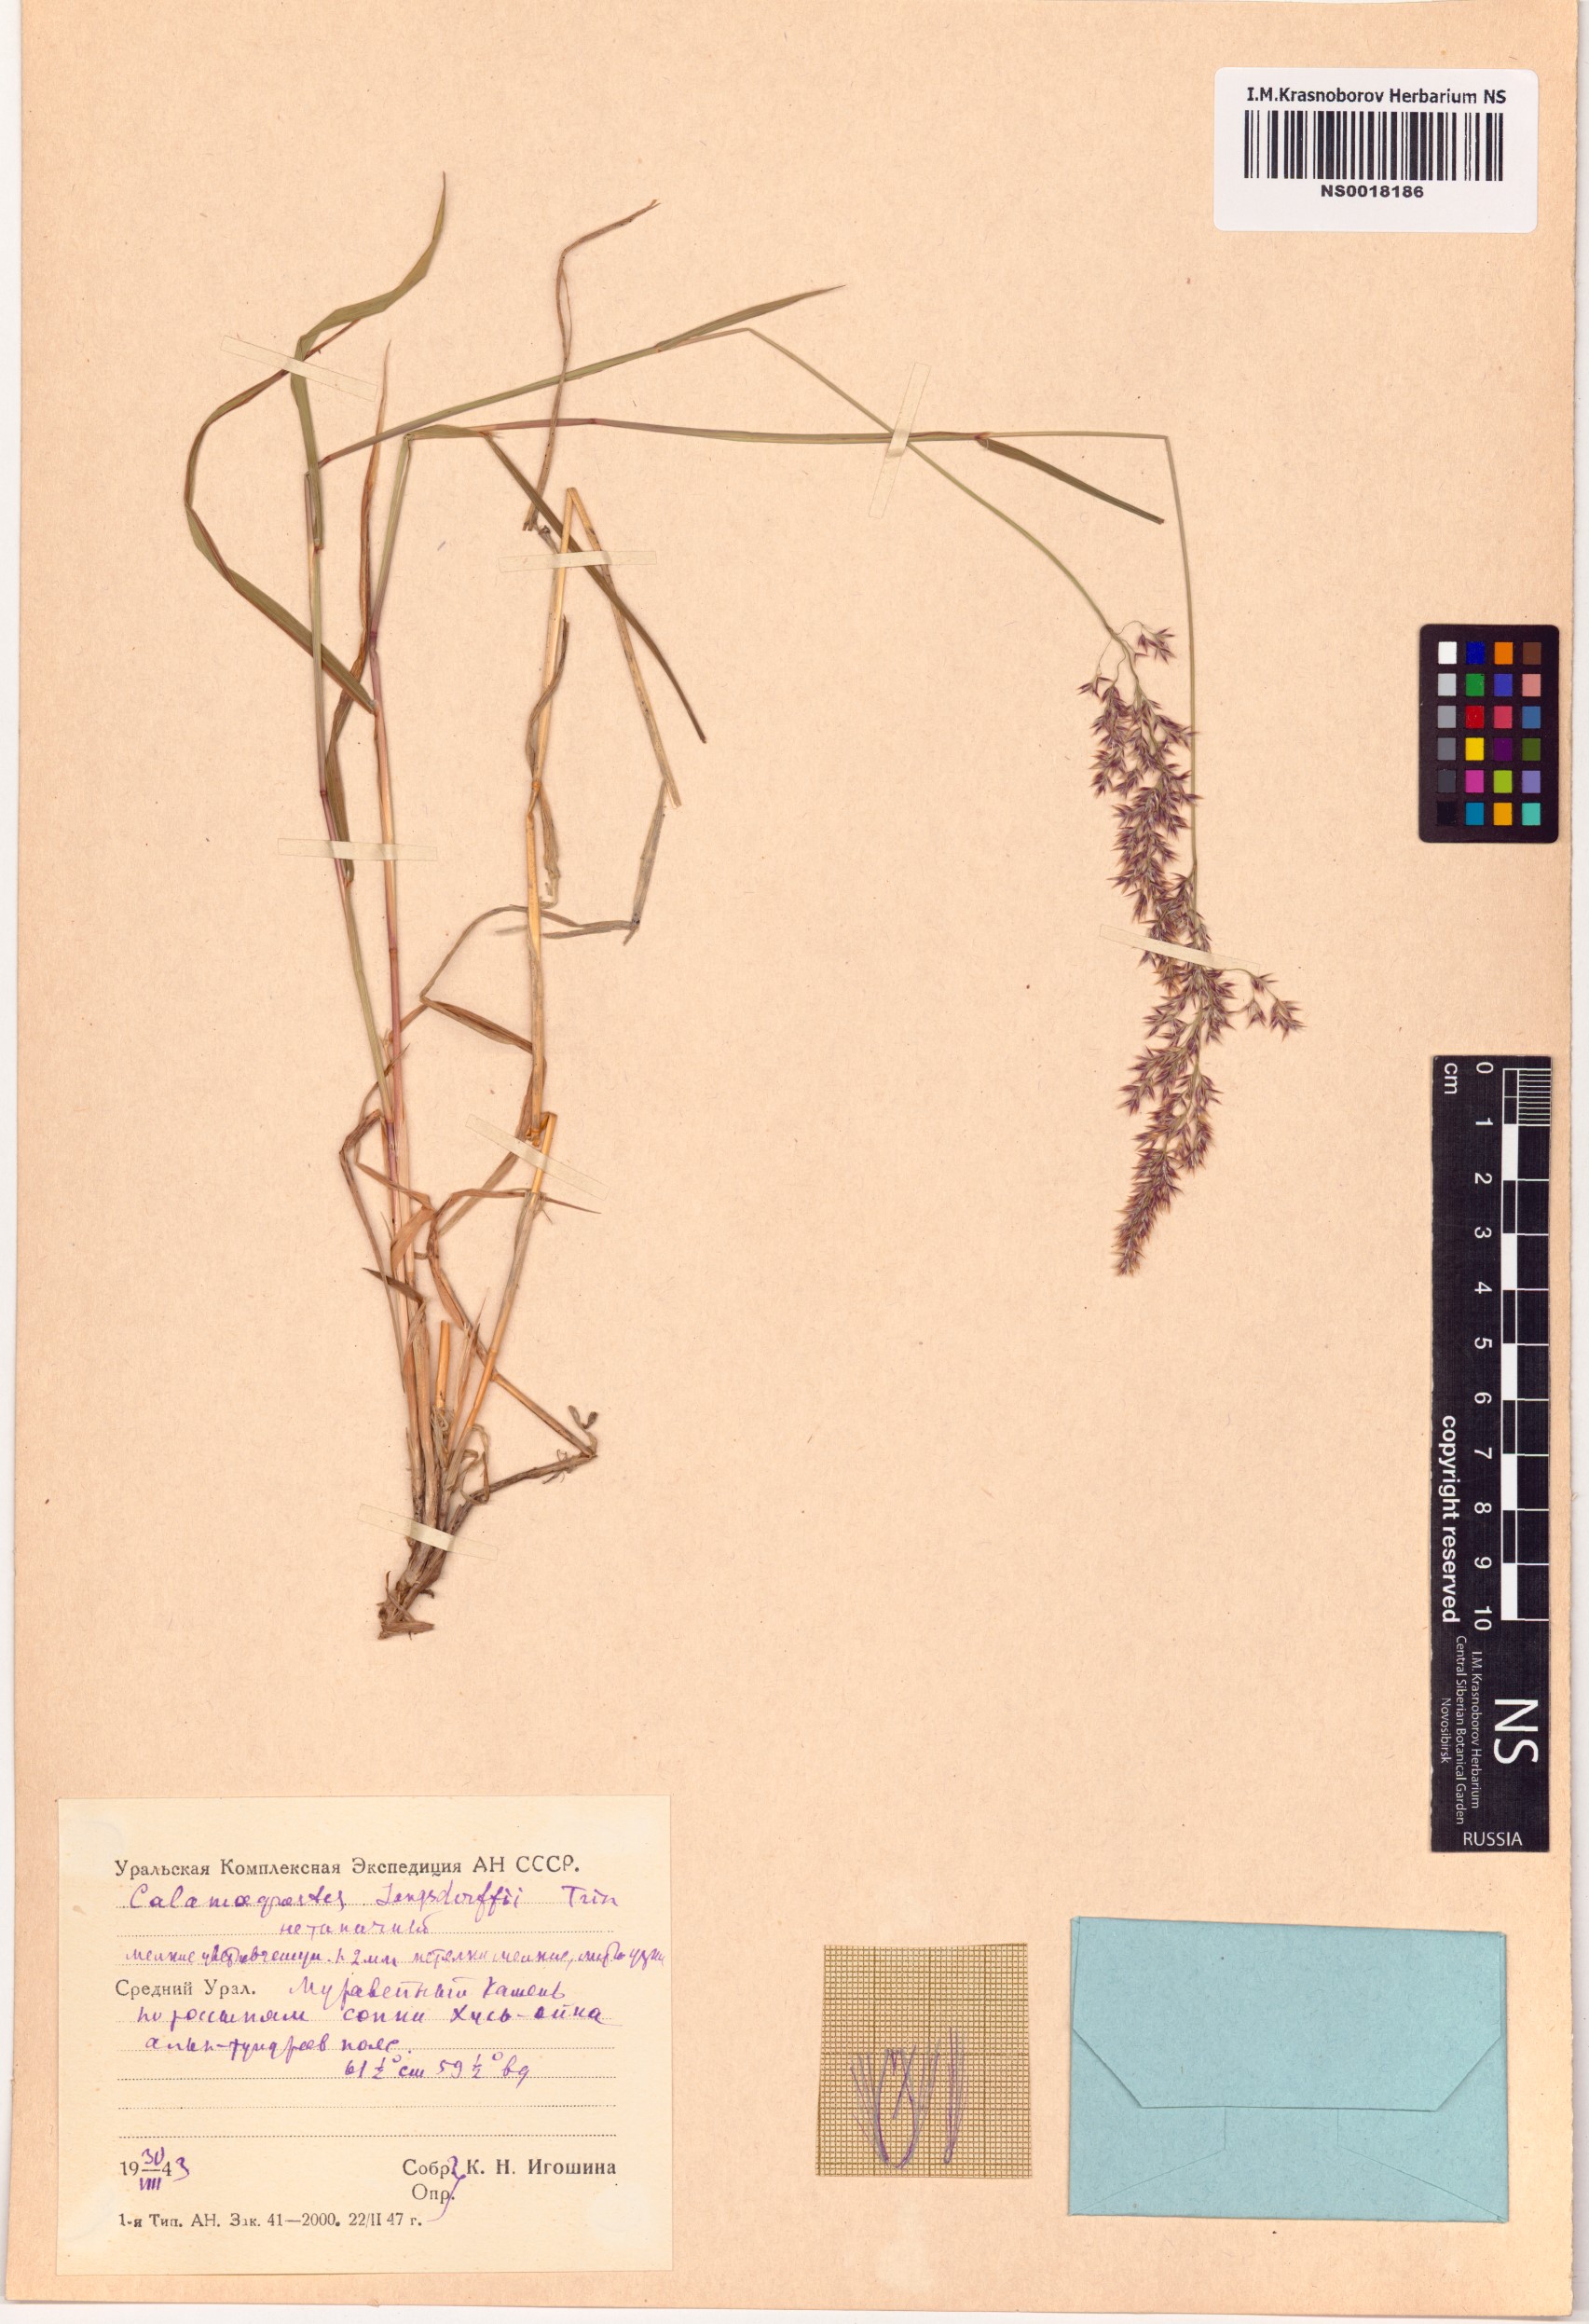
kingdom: Plantae
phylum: Tracheophyta
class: Liliopsida
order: Poales
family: Poaceae
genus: Calamagrostis
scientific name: Calamagrostis purpurea
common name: Scandinavian small-reed
